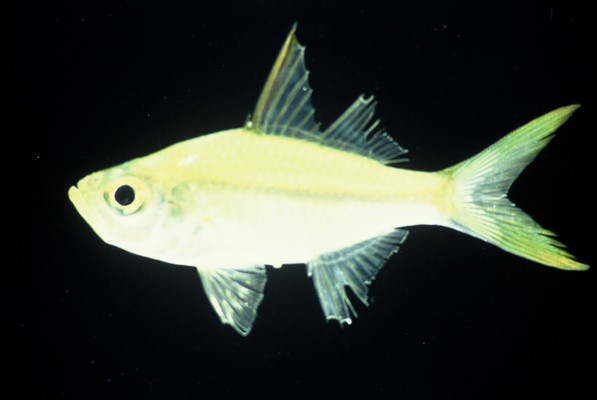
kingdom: Animalia
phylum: Chordata
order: Perciformes
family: Ambassidae
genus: Ambassis
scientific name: Ambassis ambassis
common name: Commerson's glassy perchlet
